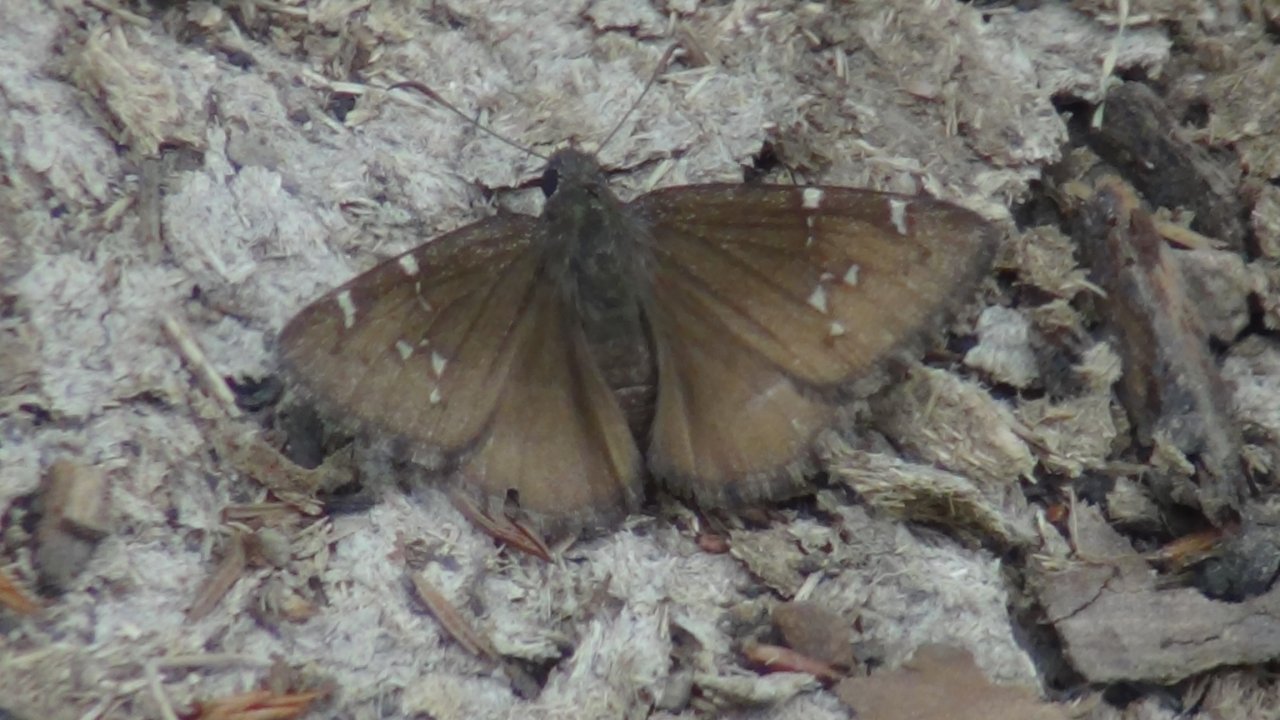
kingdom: Animalia
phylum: Arthropoda
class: Insecta
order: Lepidoptera
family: Hesperiidae
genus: Thorybes
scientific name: Thorybes mexicana
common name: Mexican Cloudywing
